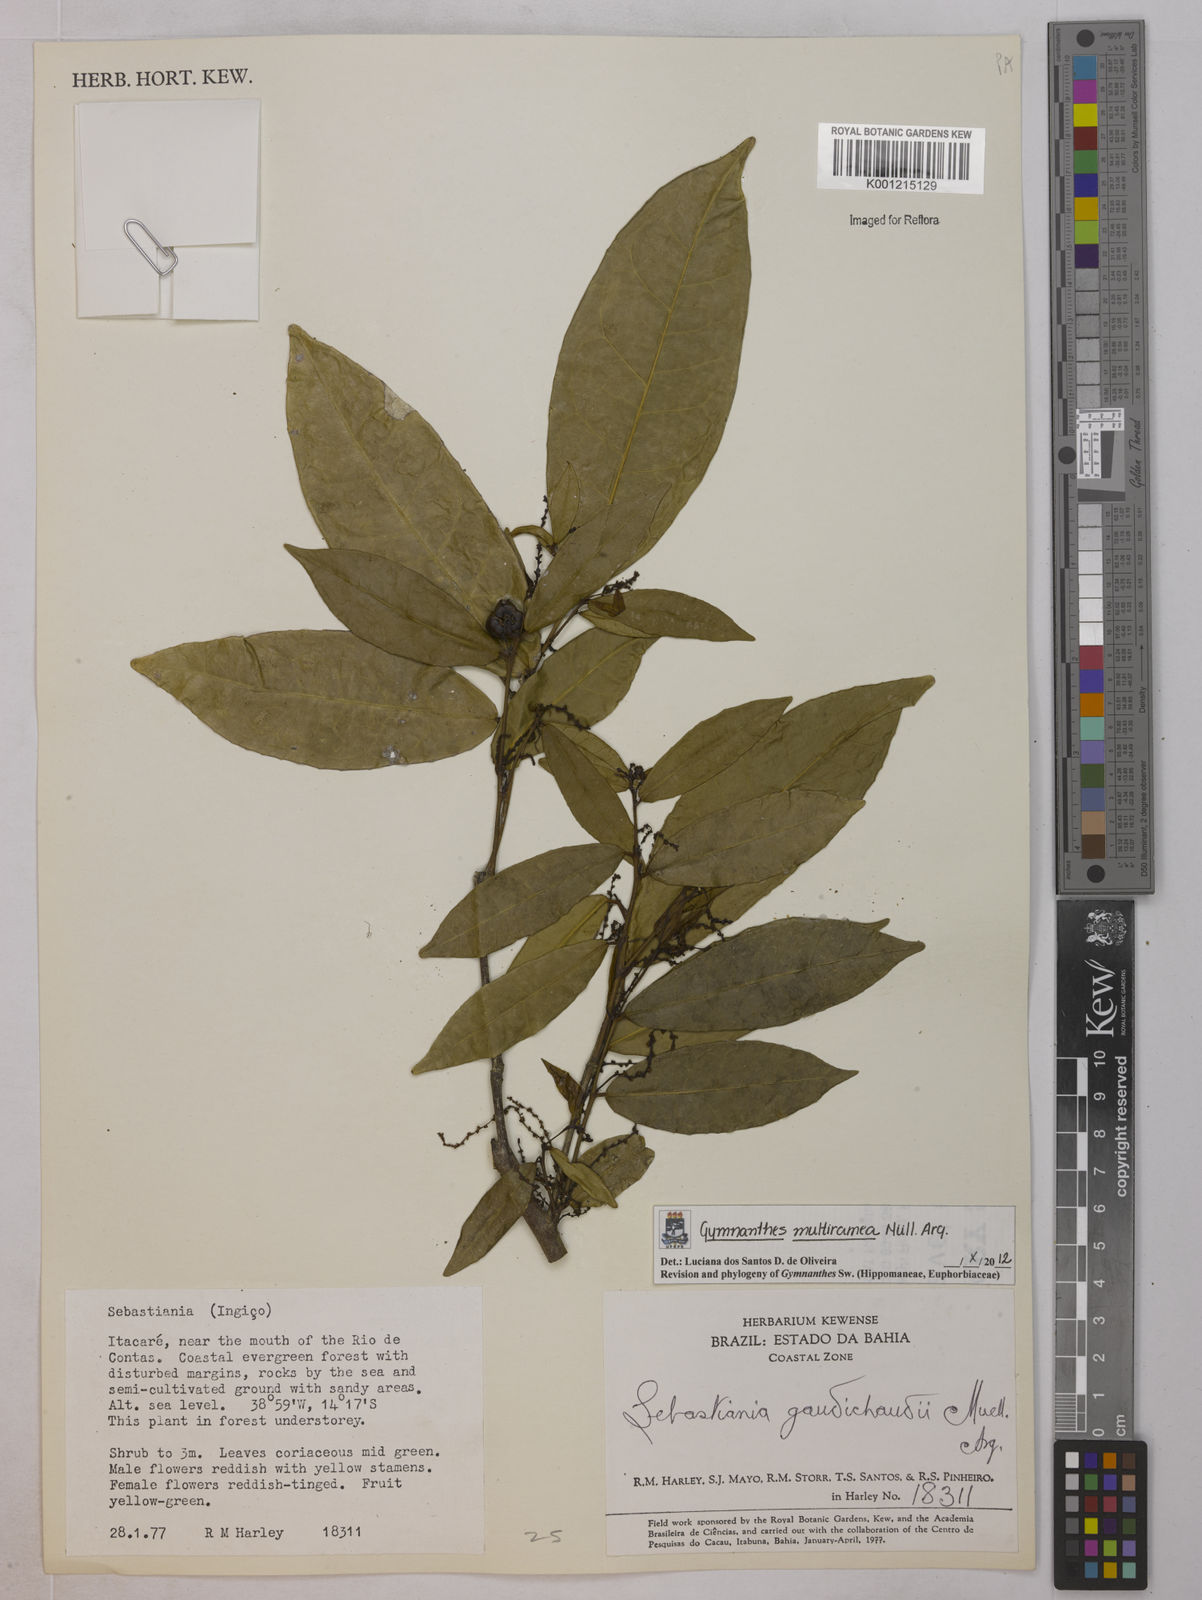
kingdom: Plantae
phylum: Tracheophyta
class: Magnoliopsida
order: Malpighiales
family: Euphorbiaceae
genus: Gymnanthes
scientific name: Gymnanthes
